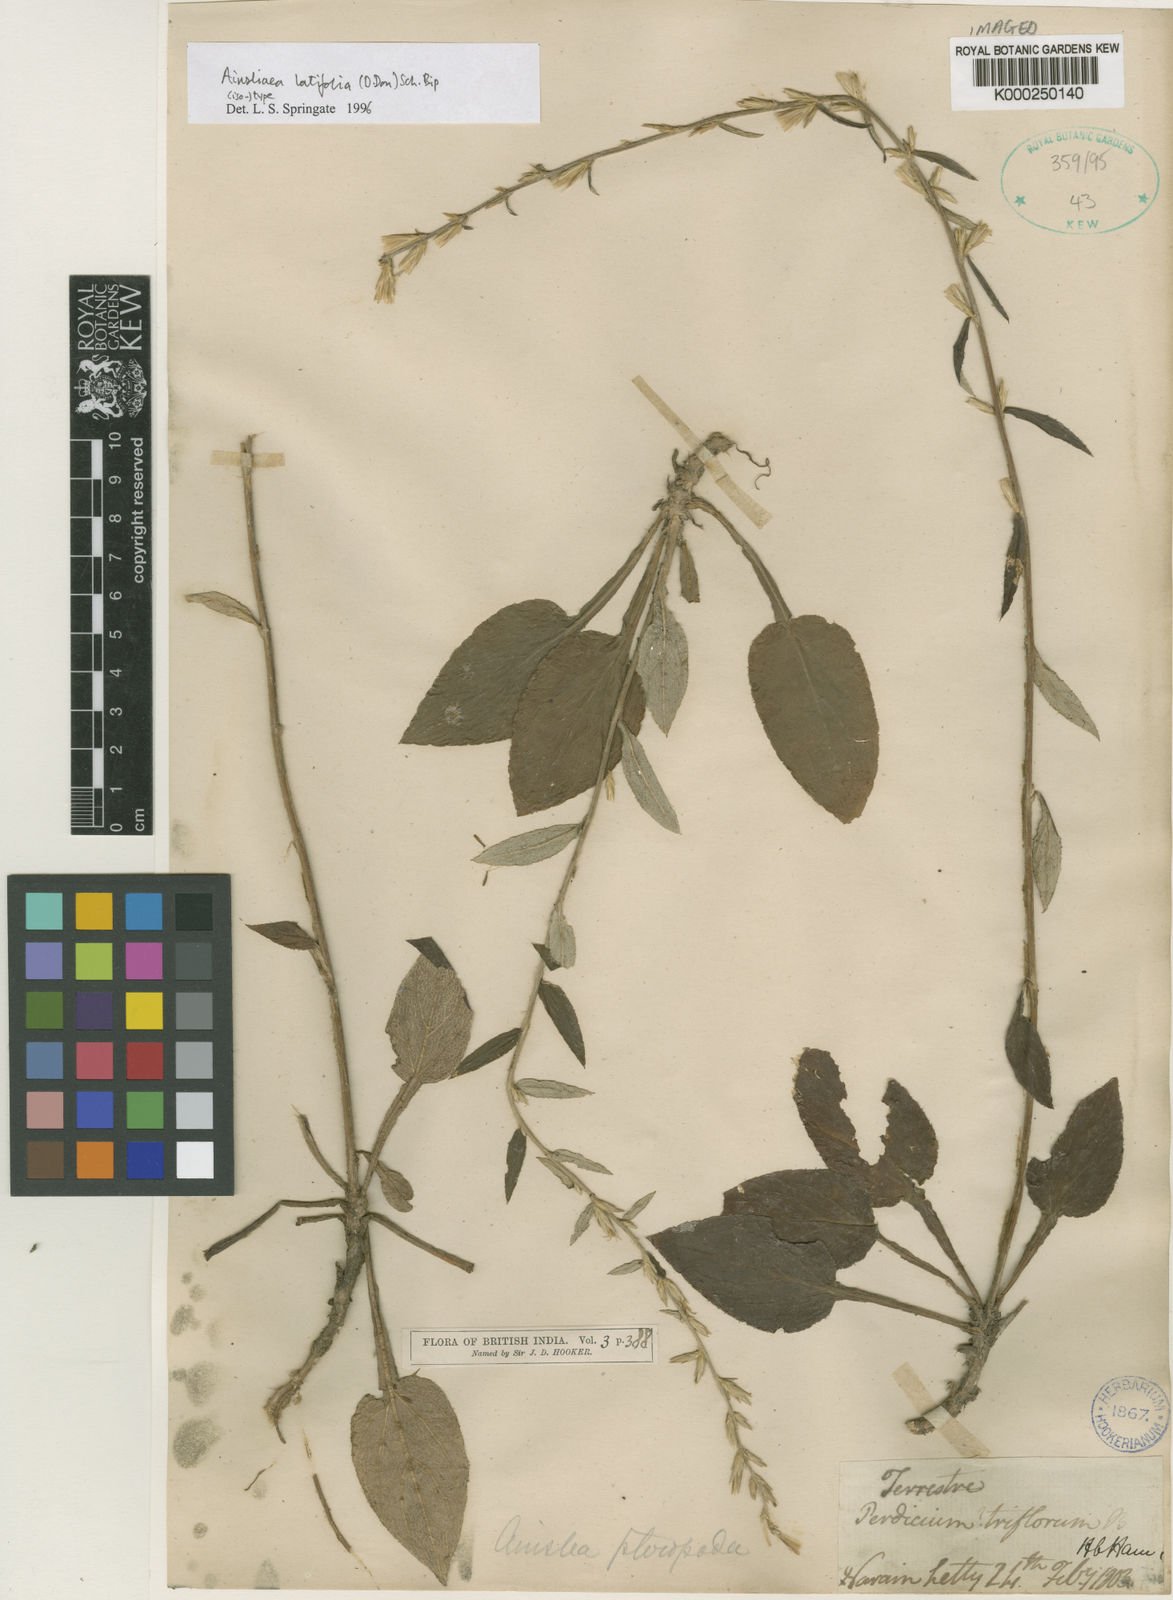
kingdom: Plantae
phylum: Tracheophyta
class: Magnoliopsida
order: Asterales
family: Asteraceae
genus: Ainsliaea
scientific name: Ainsliaea latifolia
